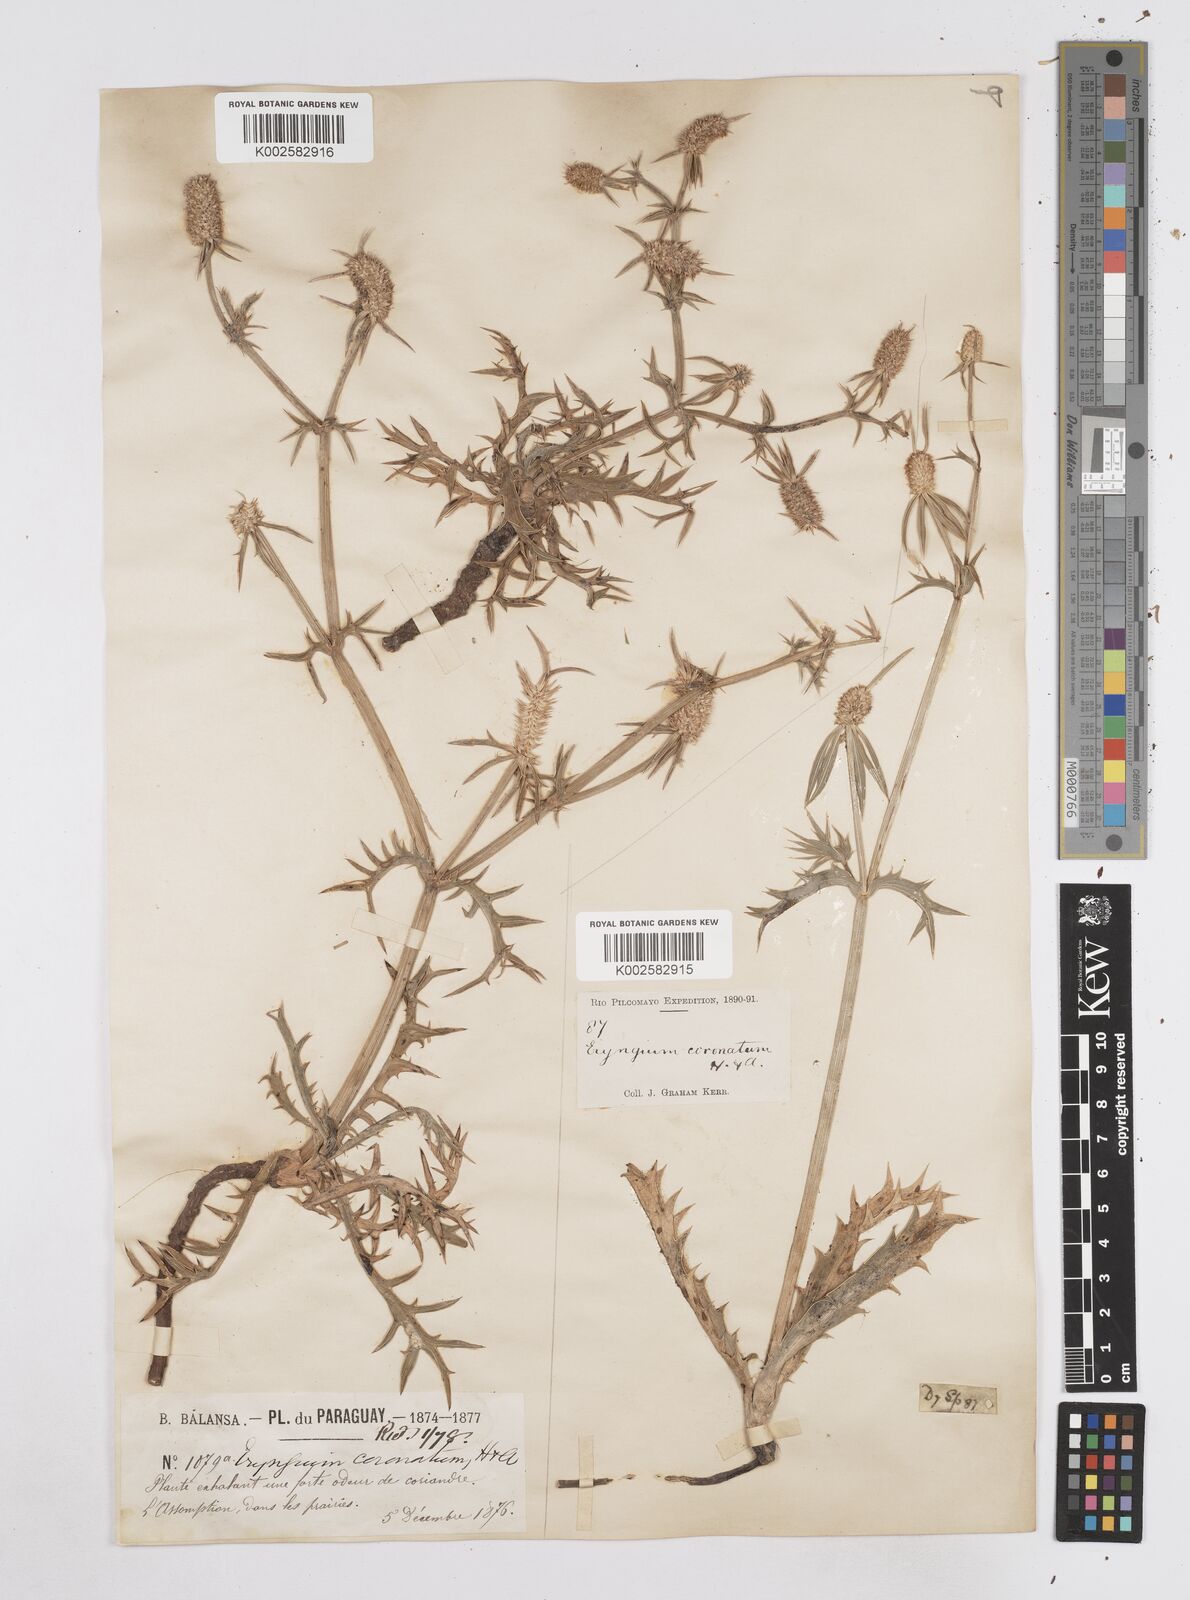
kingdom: Plantae
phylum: Tracheophyta
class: Magnoliopsida
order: Apiales
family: Apiaceae
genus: Eryngium
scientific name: Eryngium coronatum
